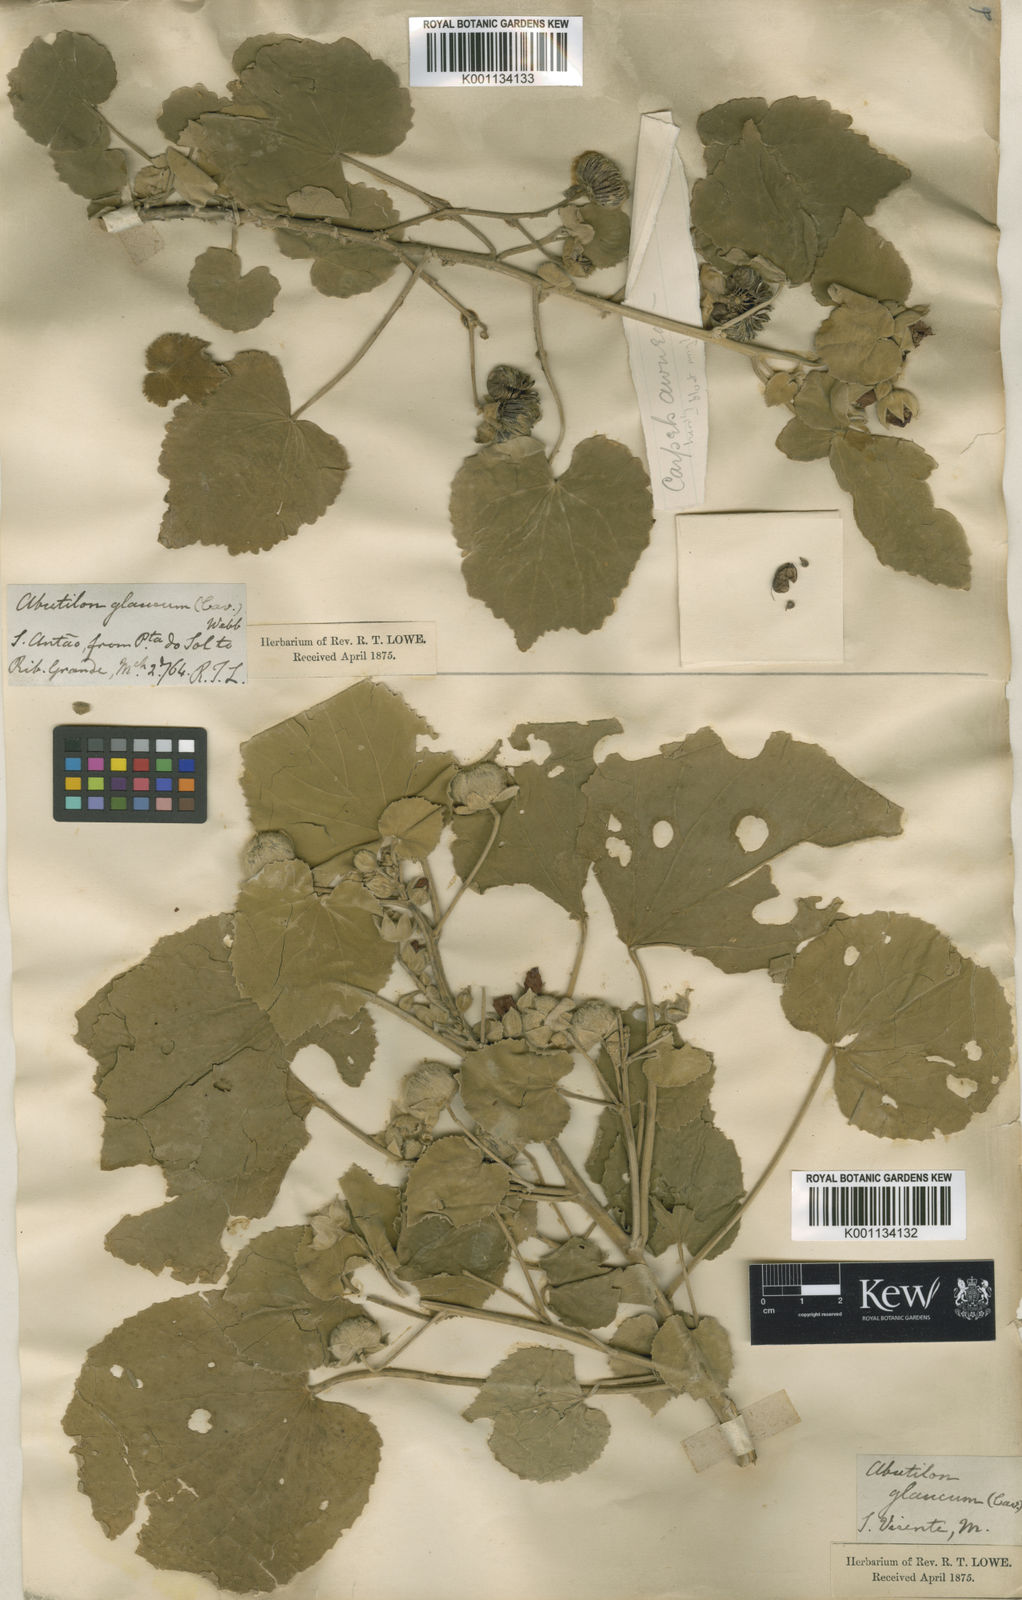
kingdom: Plantae
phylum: Tracheophyta
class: Magnoliopsida
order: Malvales
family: Malvaceae
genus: Abutilon
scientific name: Abutilon pannosum
